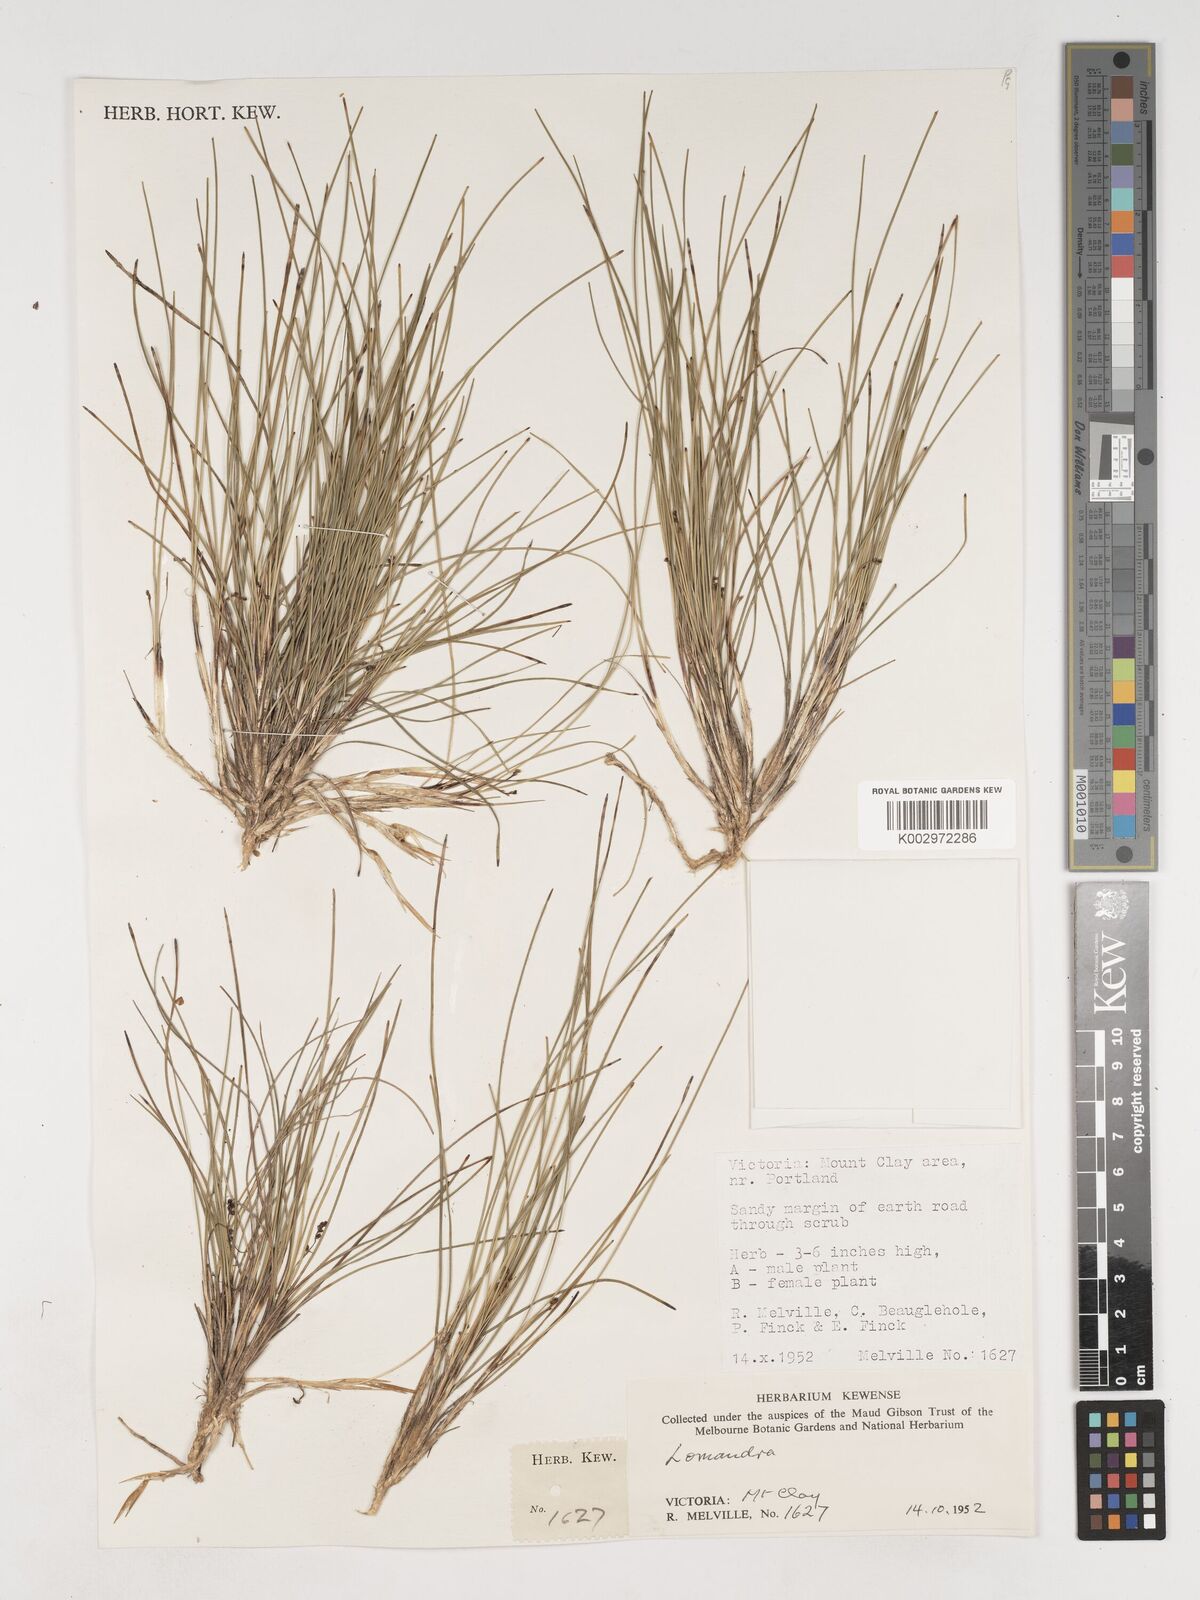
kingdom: Plantae
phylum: Tracheophyta
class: Liliopsida
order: Asparagales
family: Asparagaceae
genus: Lomandra
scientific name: Lomandra
